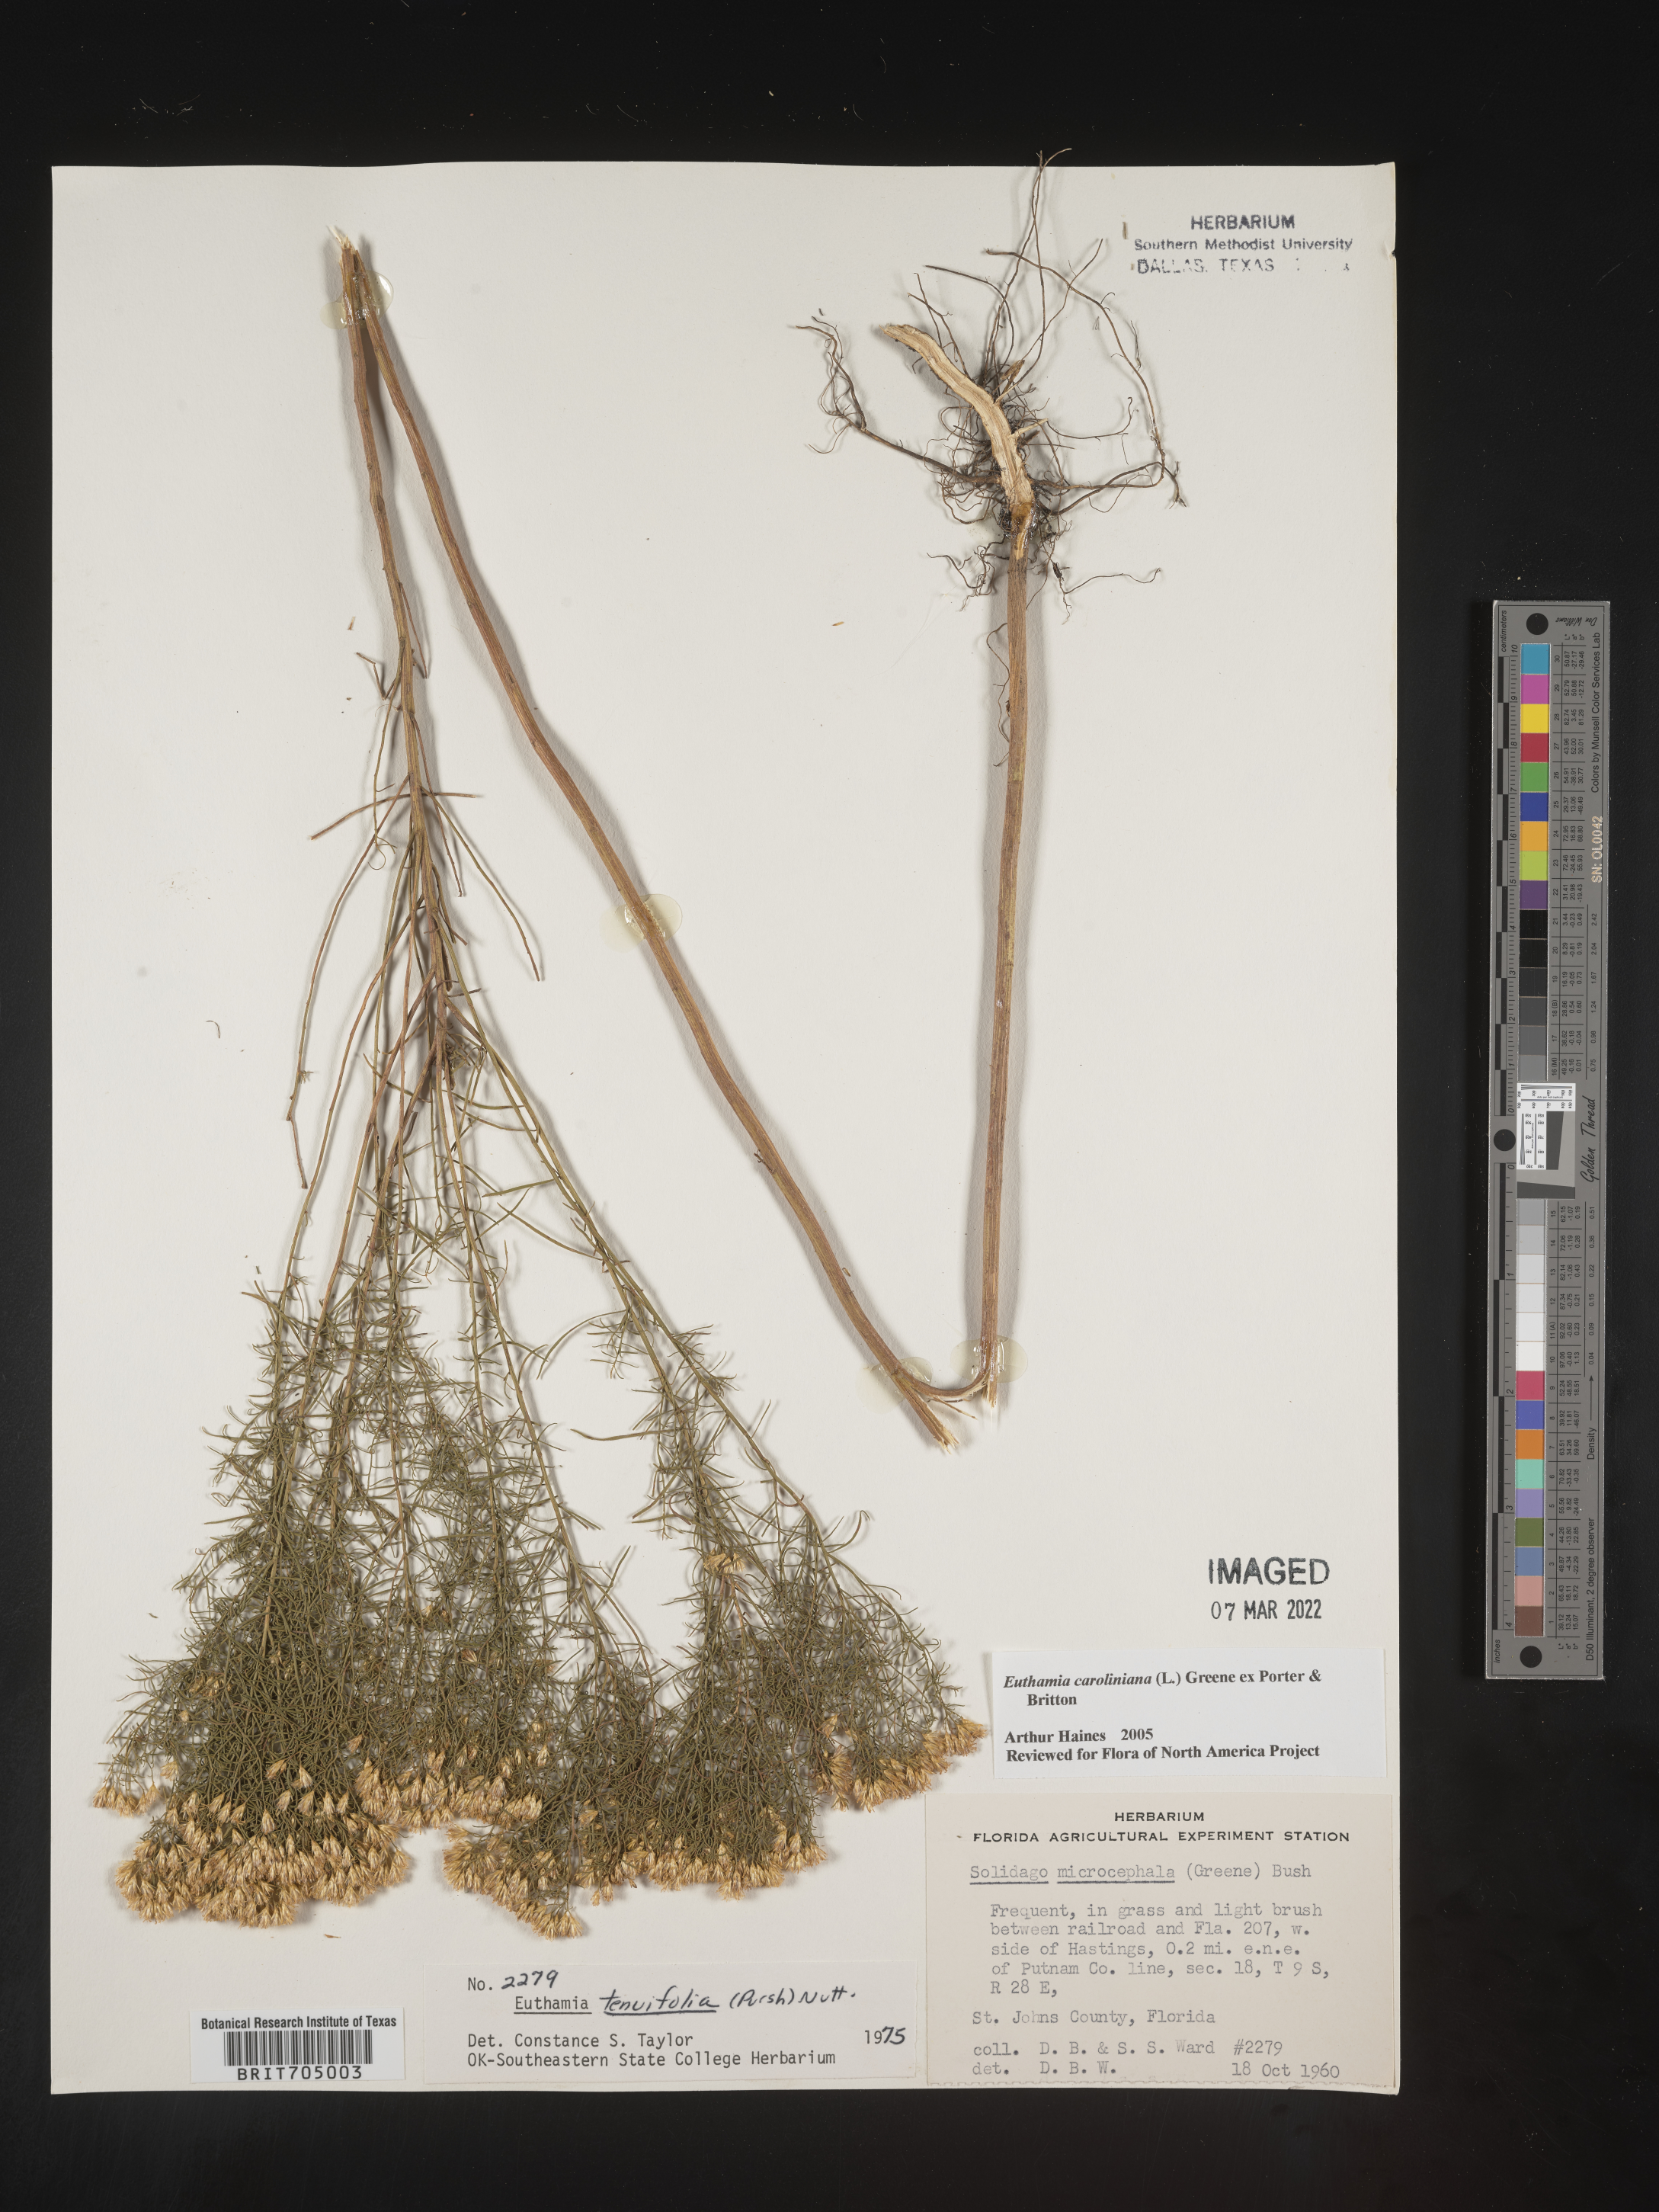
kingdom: Plantae
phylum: Tracheophyta
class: Magnoliopsida
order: Asterales
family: Asteraceae
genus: Euthamia
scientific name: Euthamia caroliniana
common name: Coastal plain goldentop
